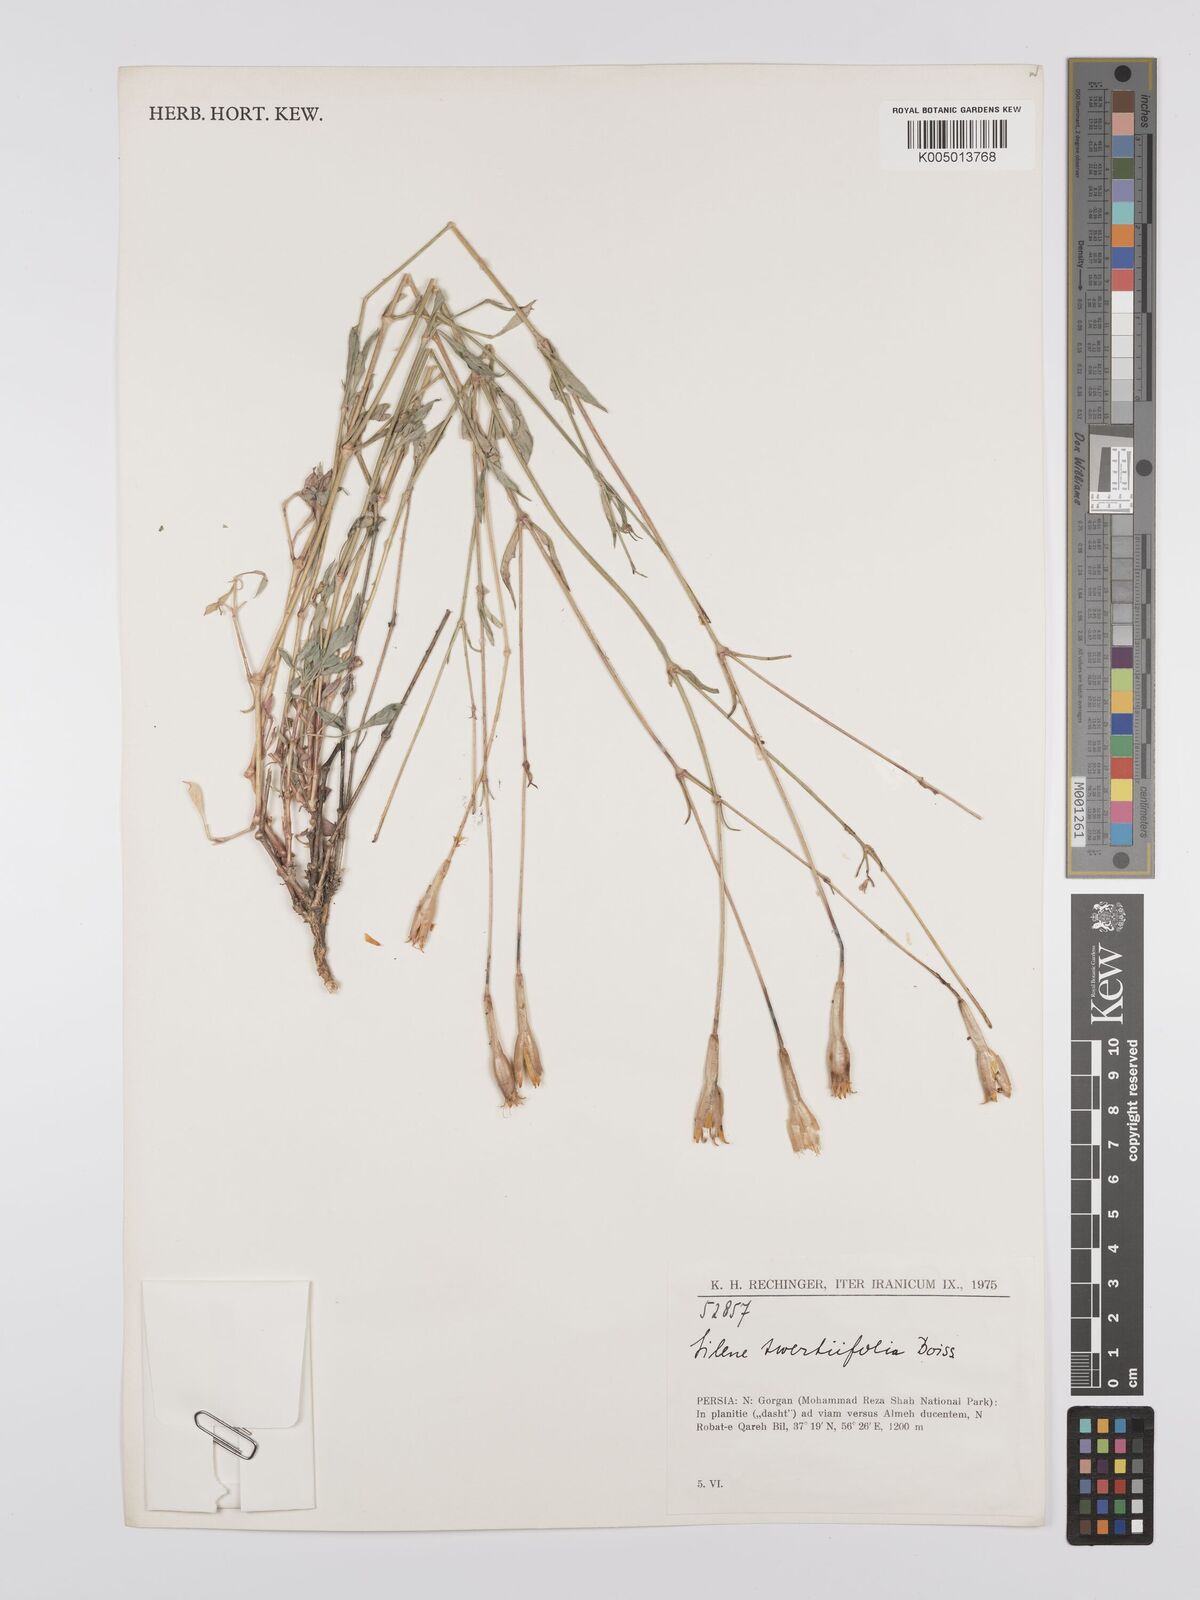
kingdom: Plantae
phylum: Tracheophyta
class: Magnoliopsida
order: Caryophyllales
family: Caryophyllaceae
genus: Silene
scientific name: Silene swertiifolia
